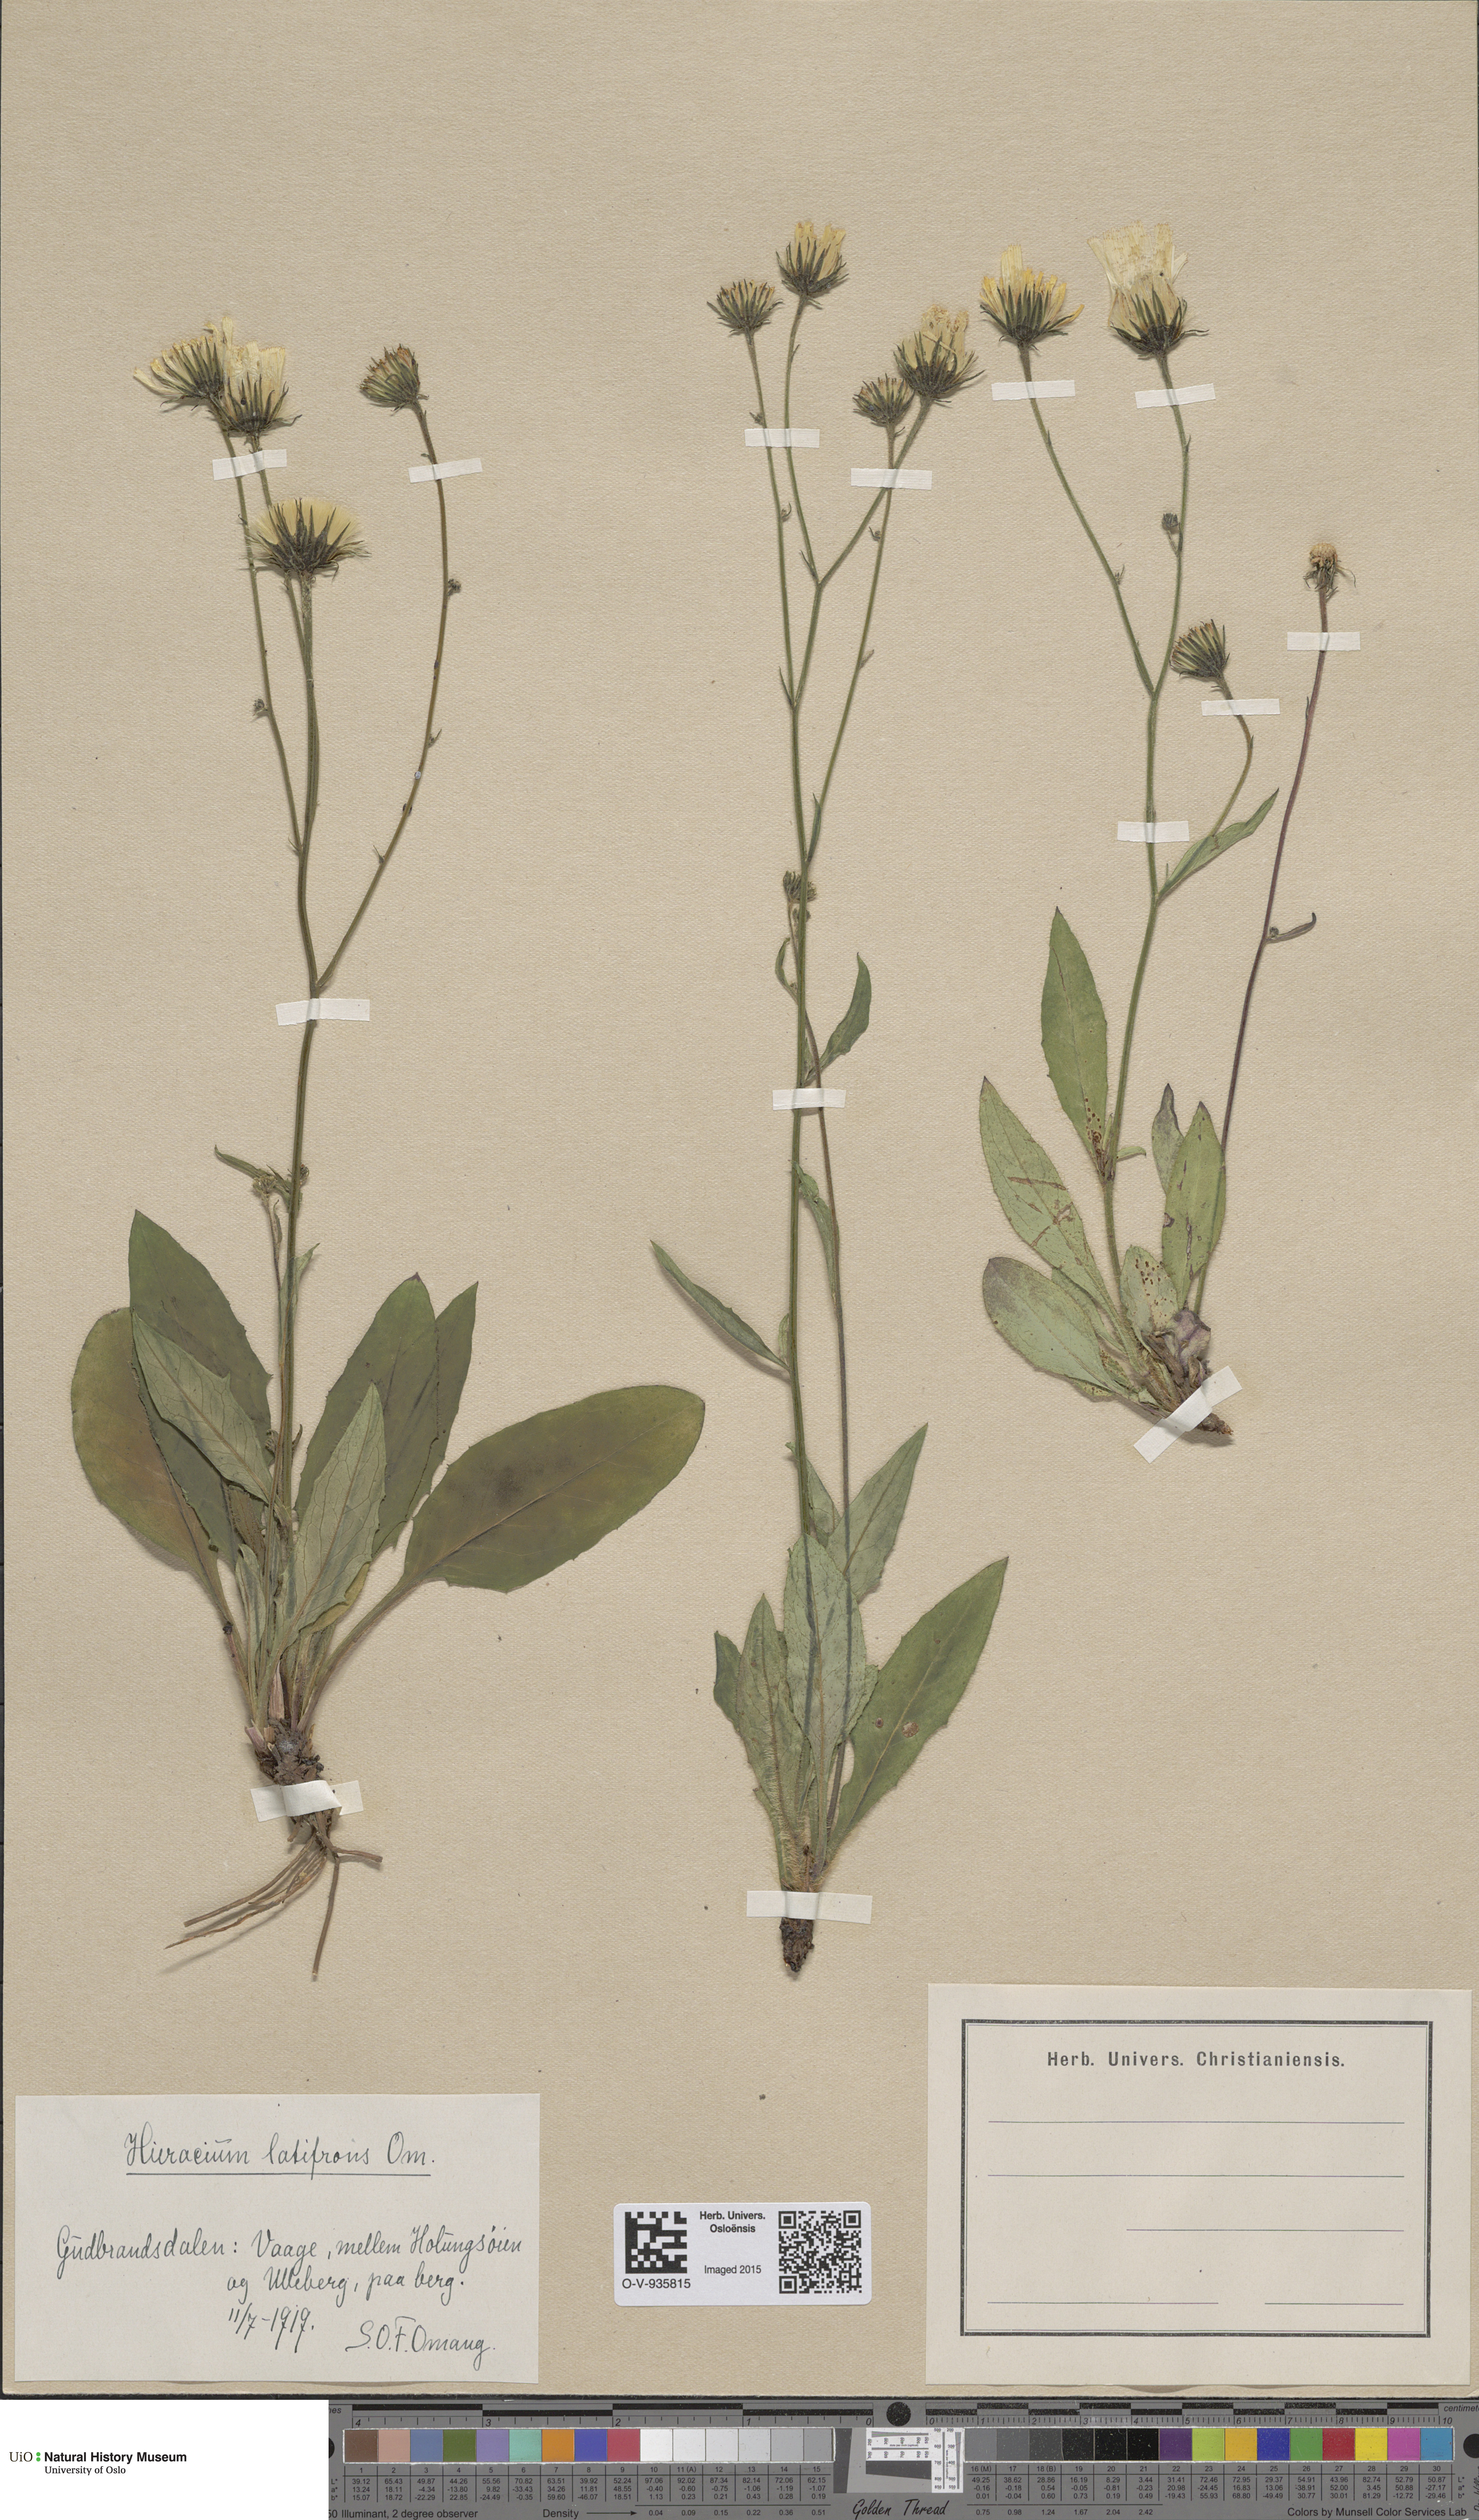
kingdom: Plantae
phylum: Tracheophyta
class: Magnoliopsida
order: Asterales
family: Asteraceae
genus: Hieracium
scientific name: Hieracium saxifragum
